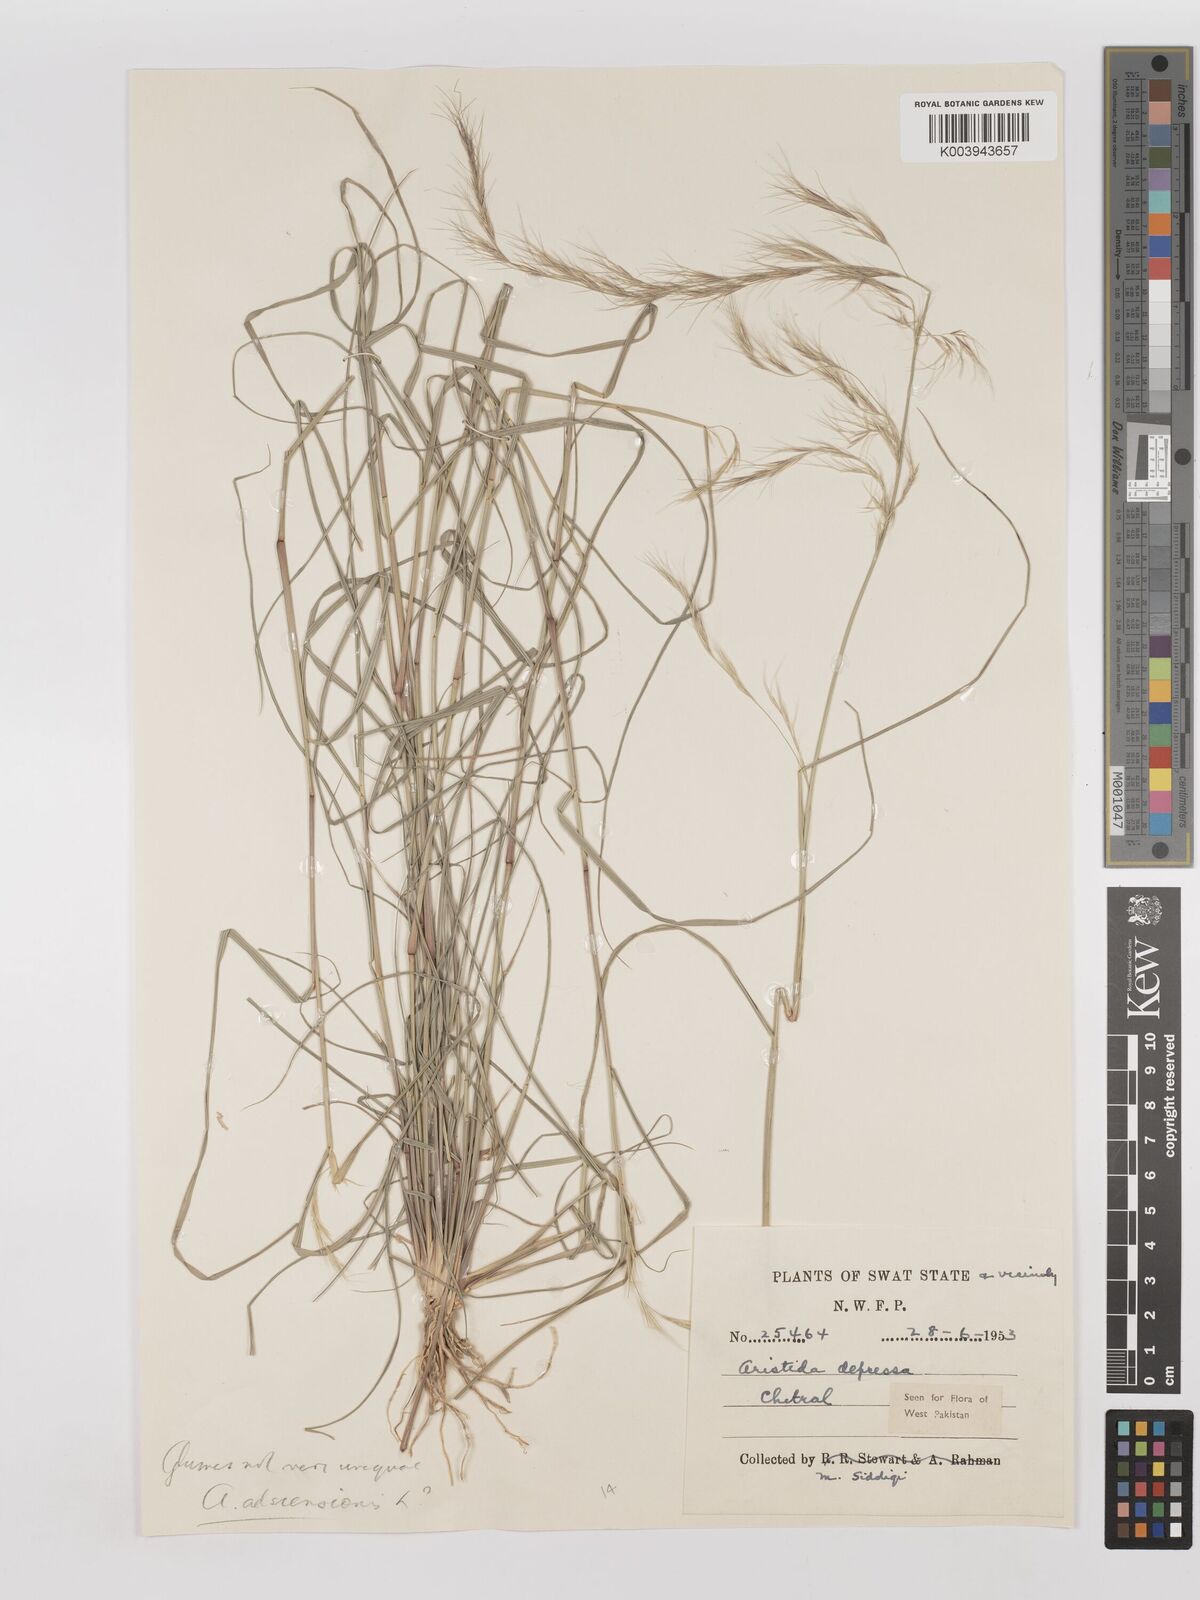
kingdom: Plantae
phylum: Tracheophyta
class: Liliopsida
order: Poales
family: Poaceae
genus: Aristida
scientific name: Aristida adscensionis
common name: Sixweeks threeawn
